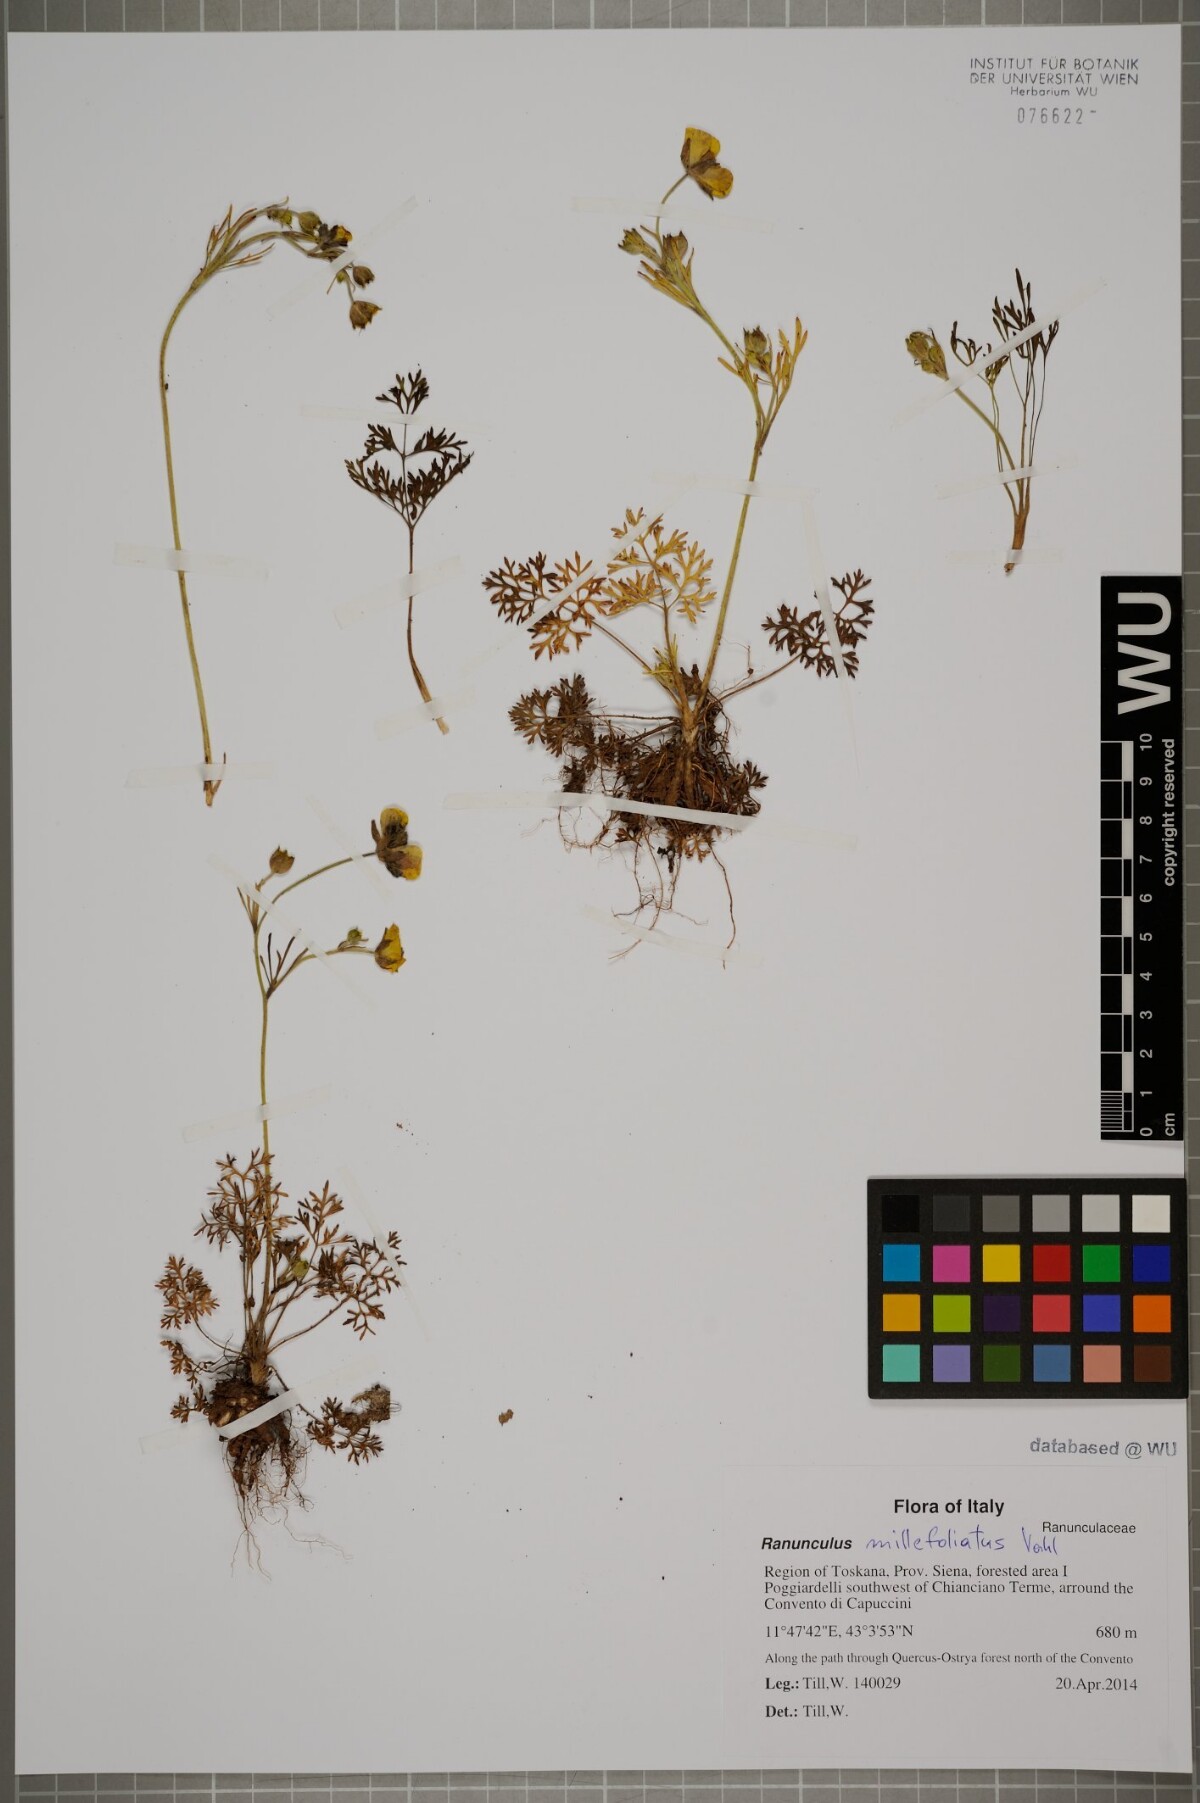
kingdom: Plantae
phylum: Tracheophyta
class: Magnoliopsida
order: Ranunculales
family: Ranunculaceae
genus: Ranunculus
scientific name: Ranunculus millefoliatus
